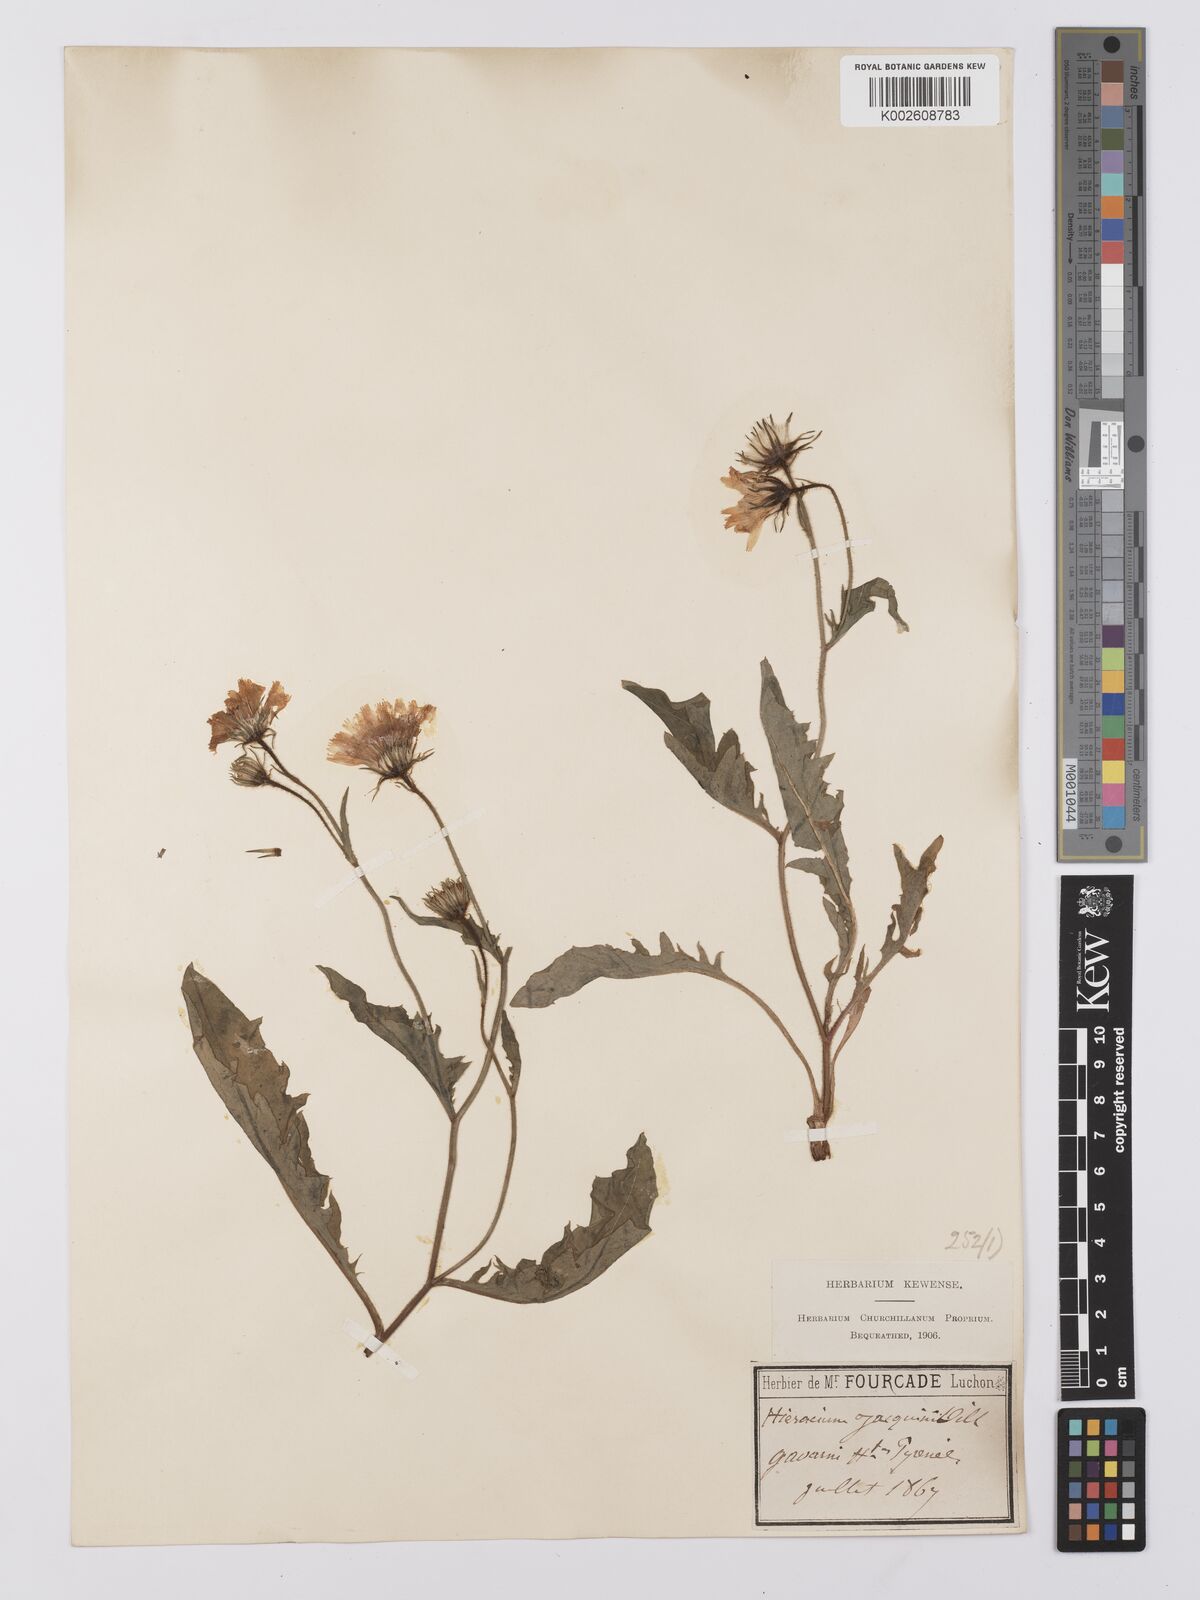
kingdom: Plantae
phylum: Tracheophyta
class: Magnoliopsida
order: Asterales
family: Asteraceae
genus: Hieracium
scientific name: Hieracium humile
